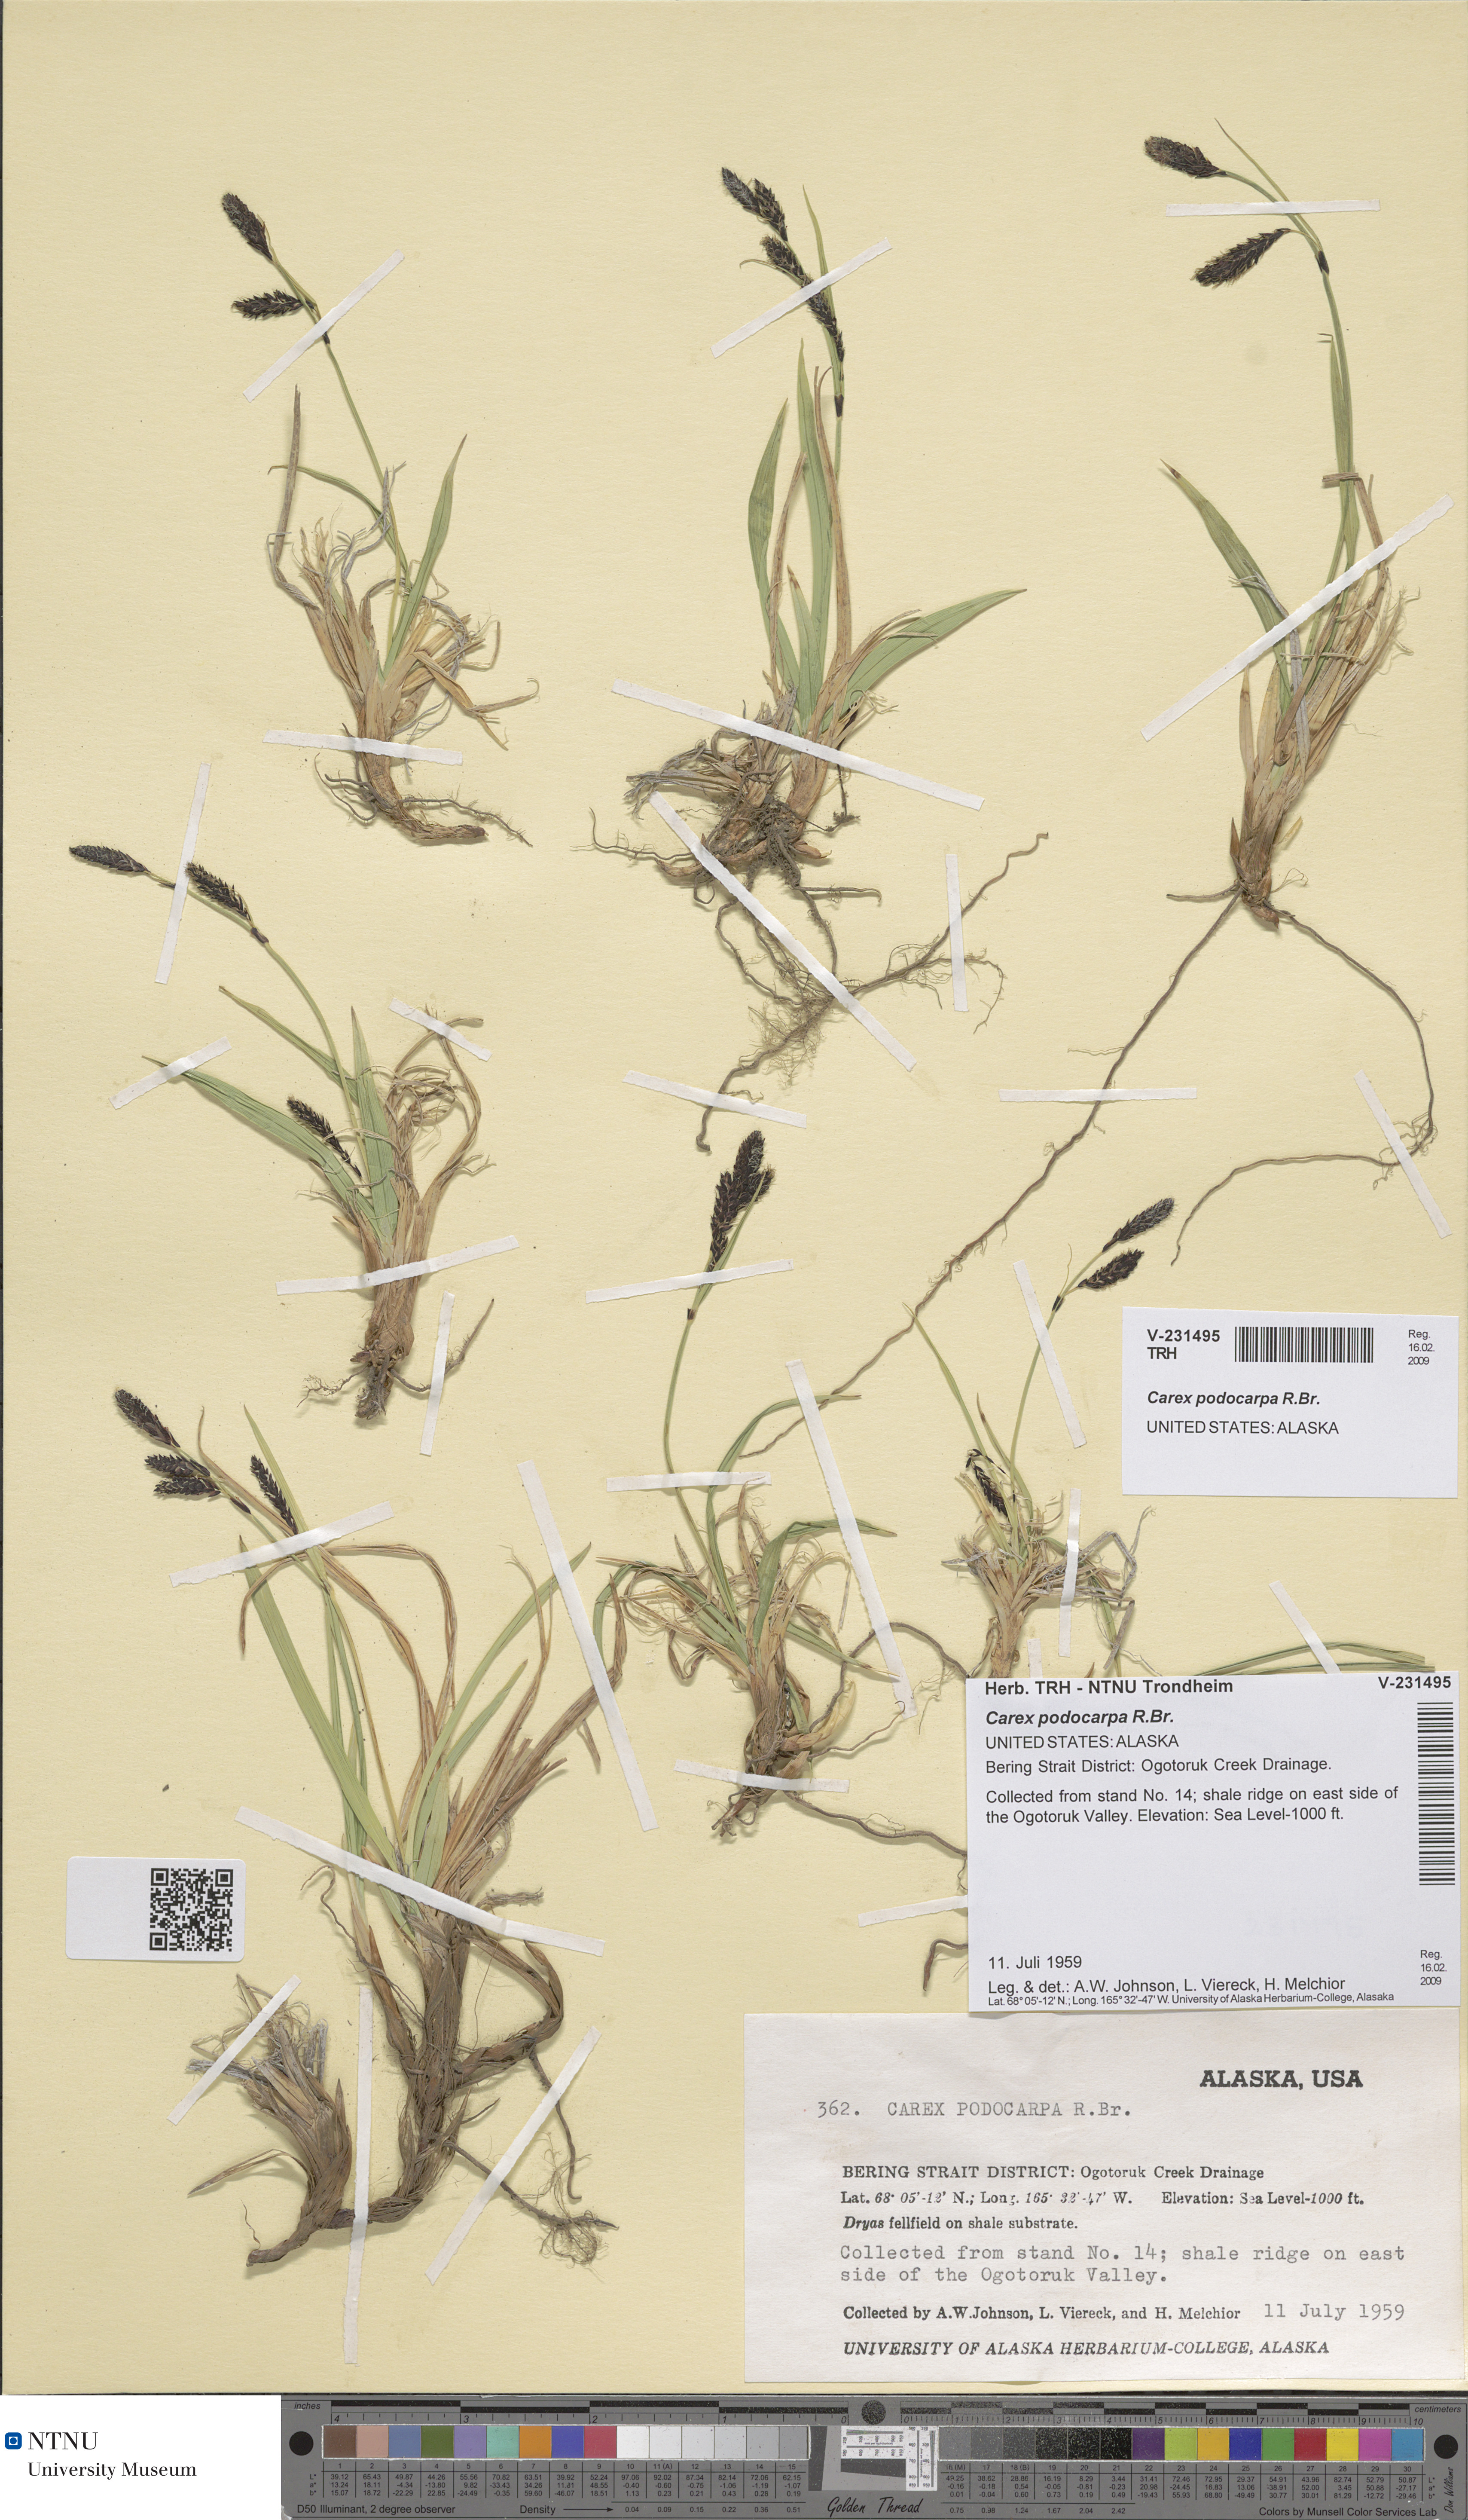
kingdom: Plantae
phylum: Tracheophyta
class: Liliopsida
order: Poales
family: Cyperaceae
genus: Carex
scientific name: Carex podocarpa
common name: Alpine sedge
